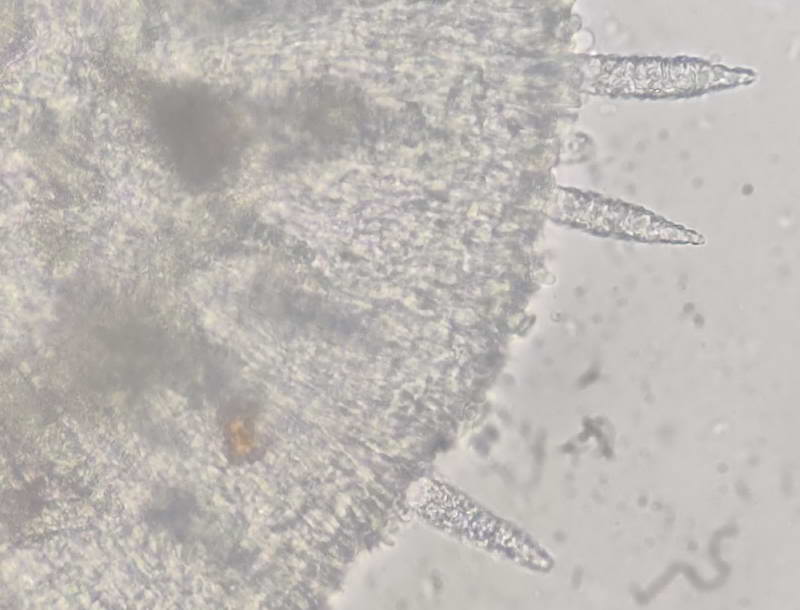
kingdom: Fungi
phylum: Basidiomycota
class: Agaricomycetes
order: Polyporales
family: Phanerochaetaceae
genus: Phlebiopsis
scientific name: Phlebiopsis gigantea
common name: kæmpebarksvamp
